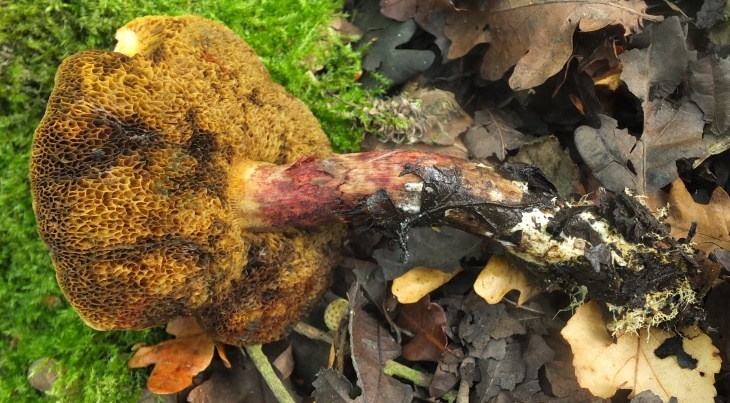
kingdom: Fungi
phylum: Basidiomycota
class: Agaricomycetes
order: Boletales
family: Boletaceae
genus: Xerocomellus
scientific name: Xerocomellus ripariellus
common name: sump-rørhat
